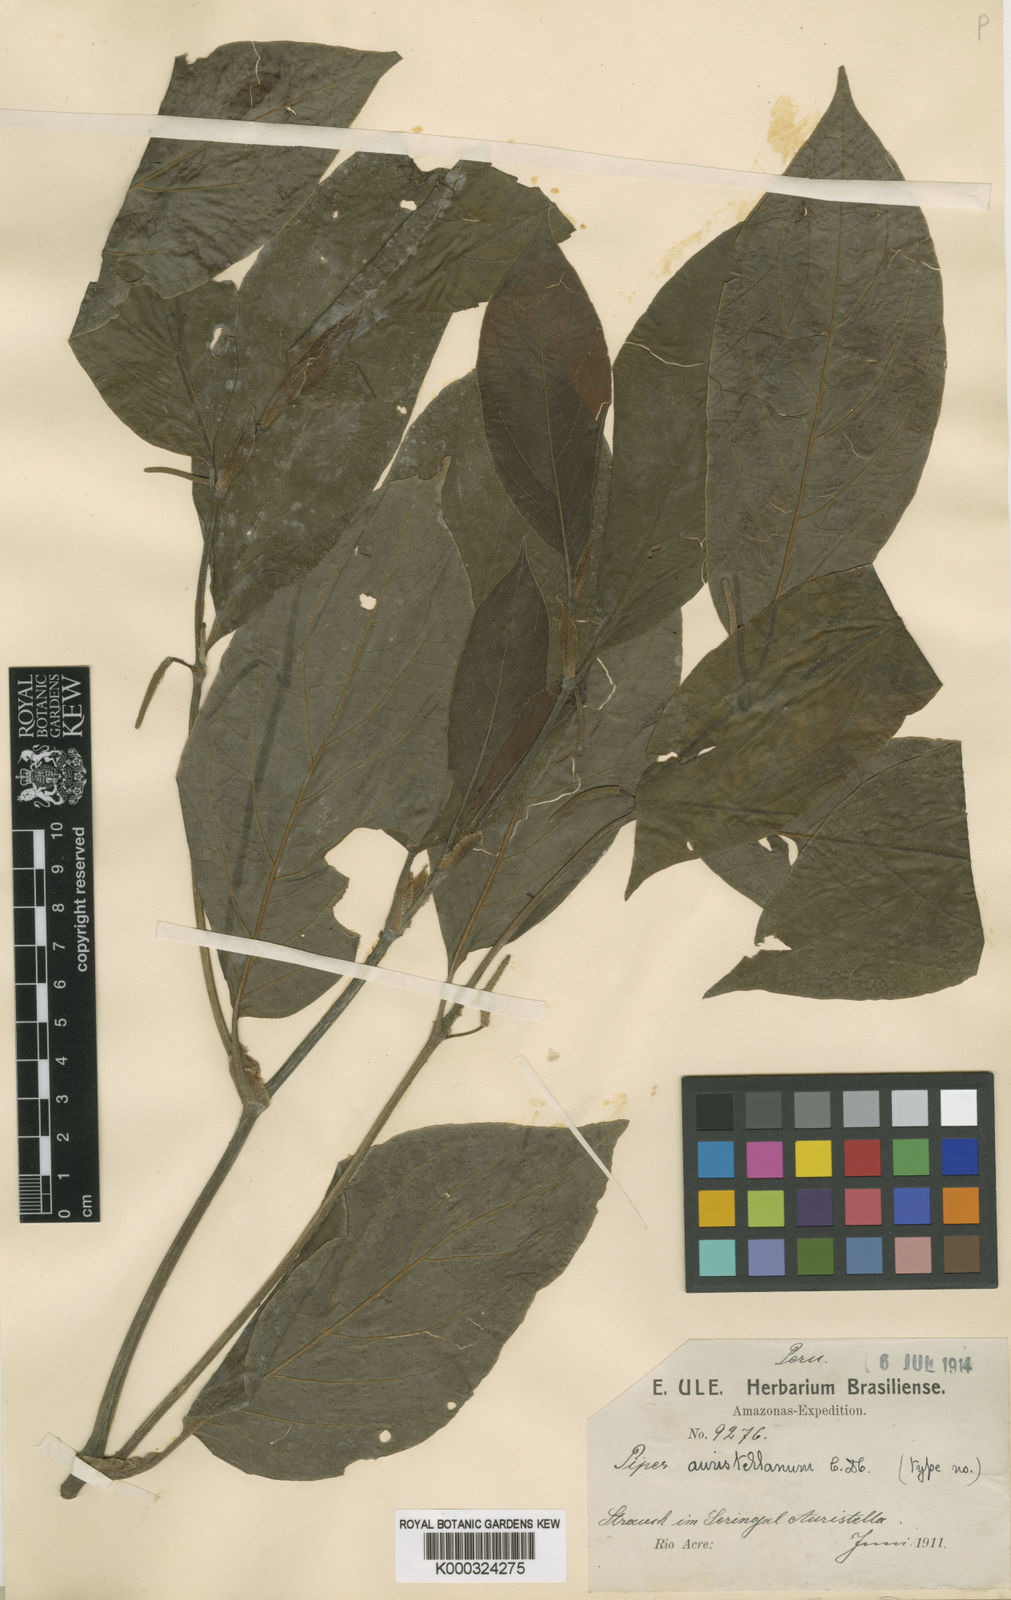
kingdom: Plantae
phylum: Tracheophyta
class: Magnoliopsida
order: Piperales
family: Piperaceae
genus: Piper
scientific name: Piper dumosum
